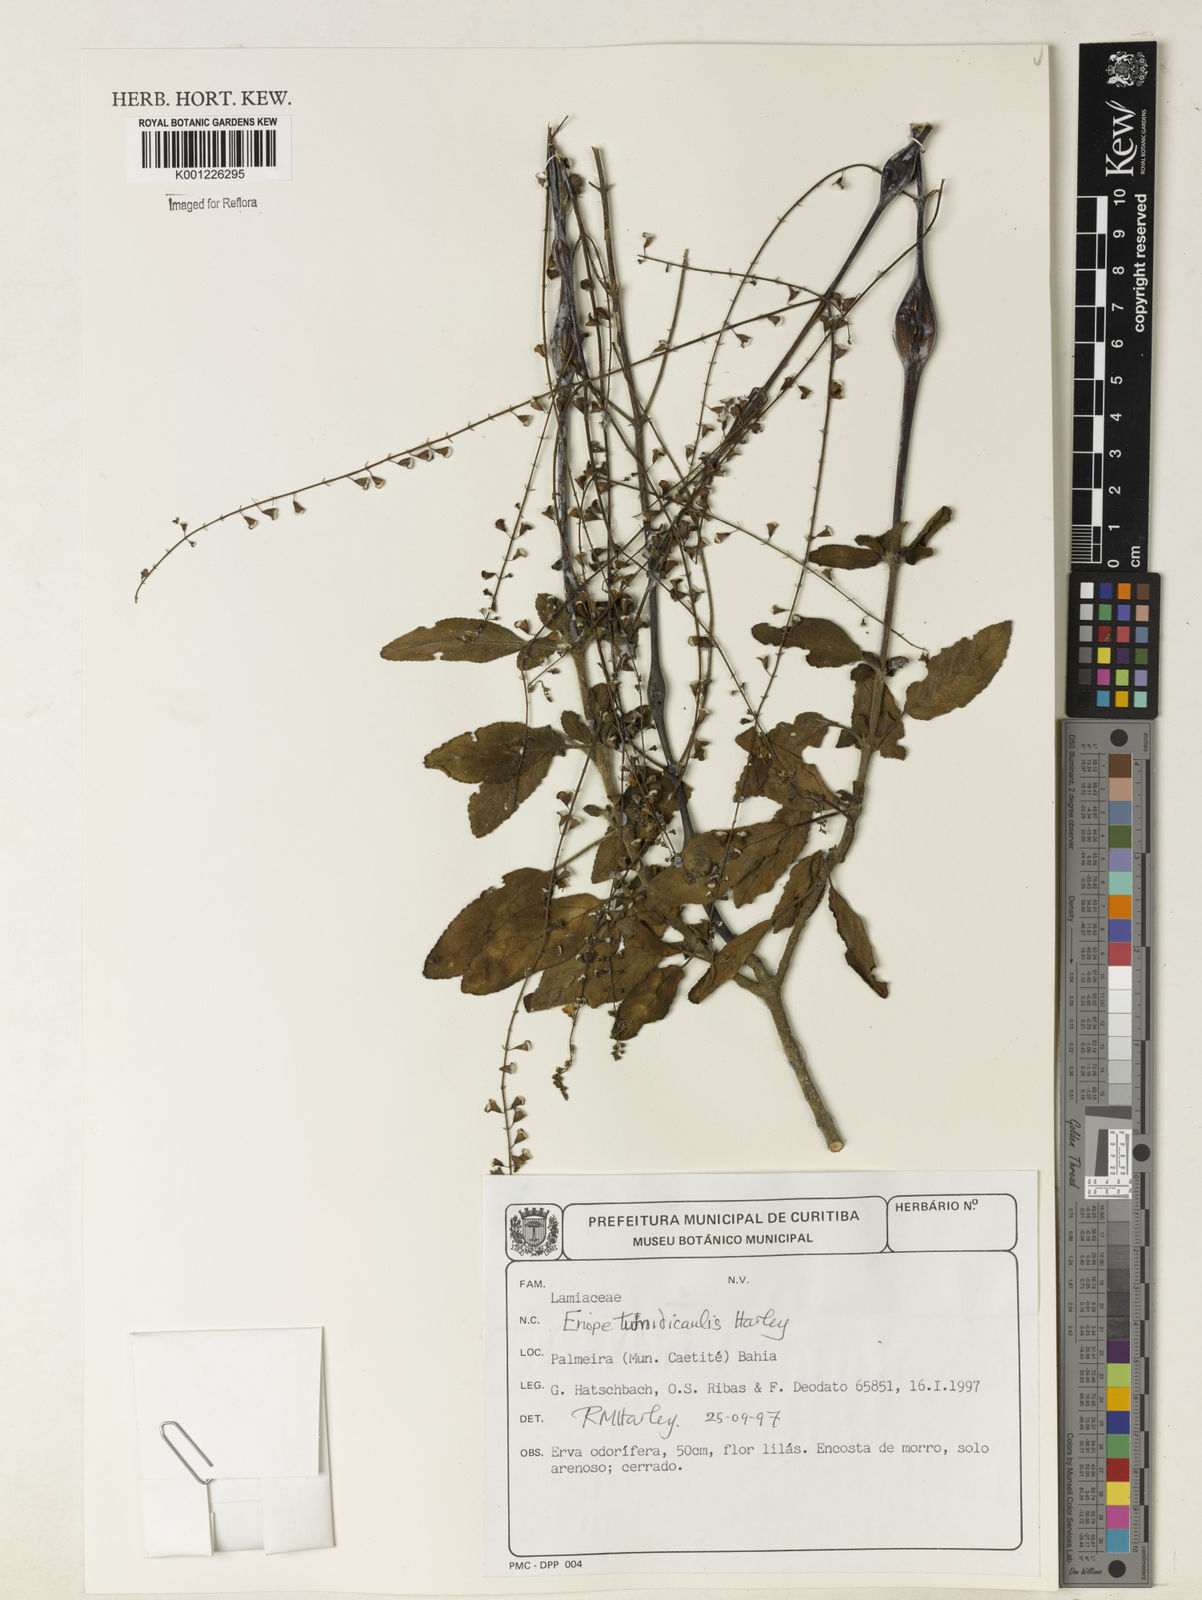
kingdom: Plantae
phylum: Tracheophyta
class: Magnoliopsida
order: Lamiales
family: Lamiaceae
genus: Eriope
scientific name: Eriope tumidicaulis
